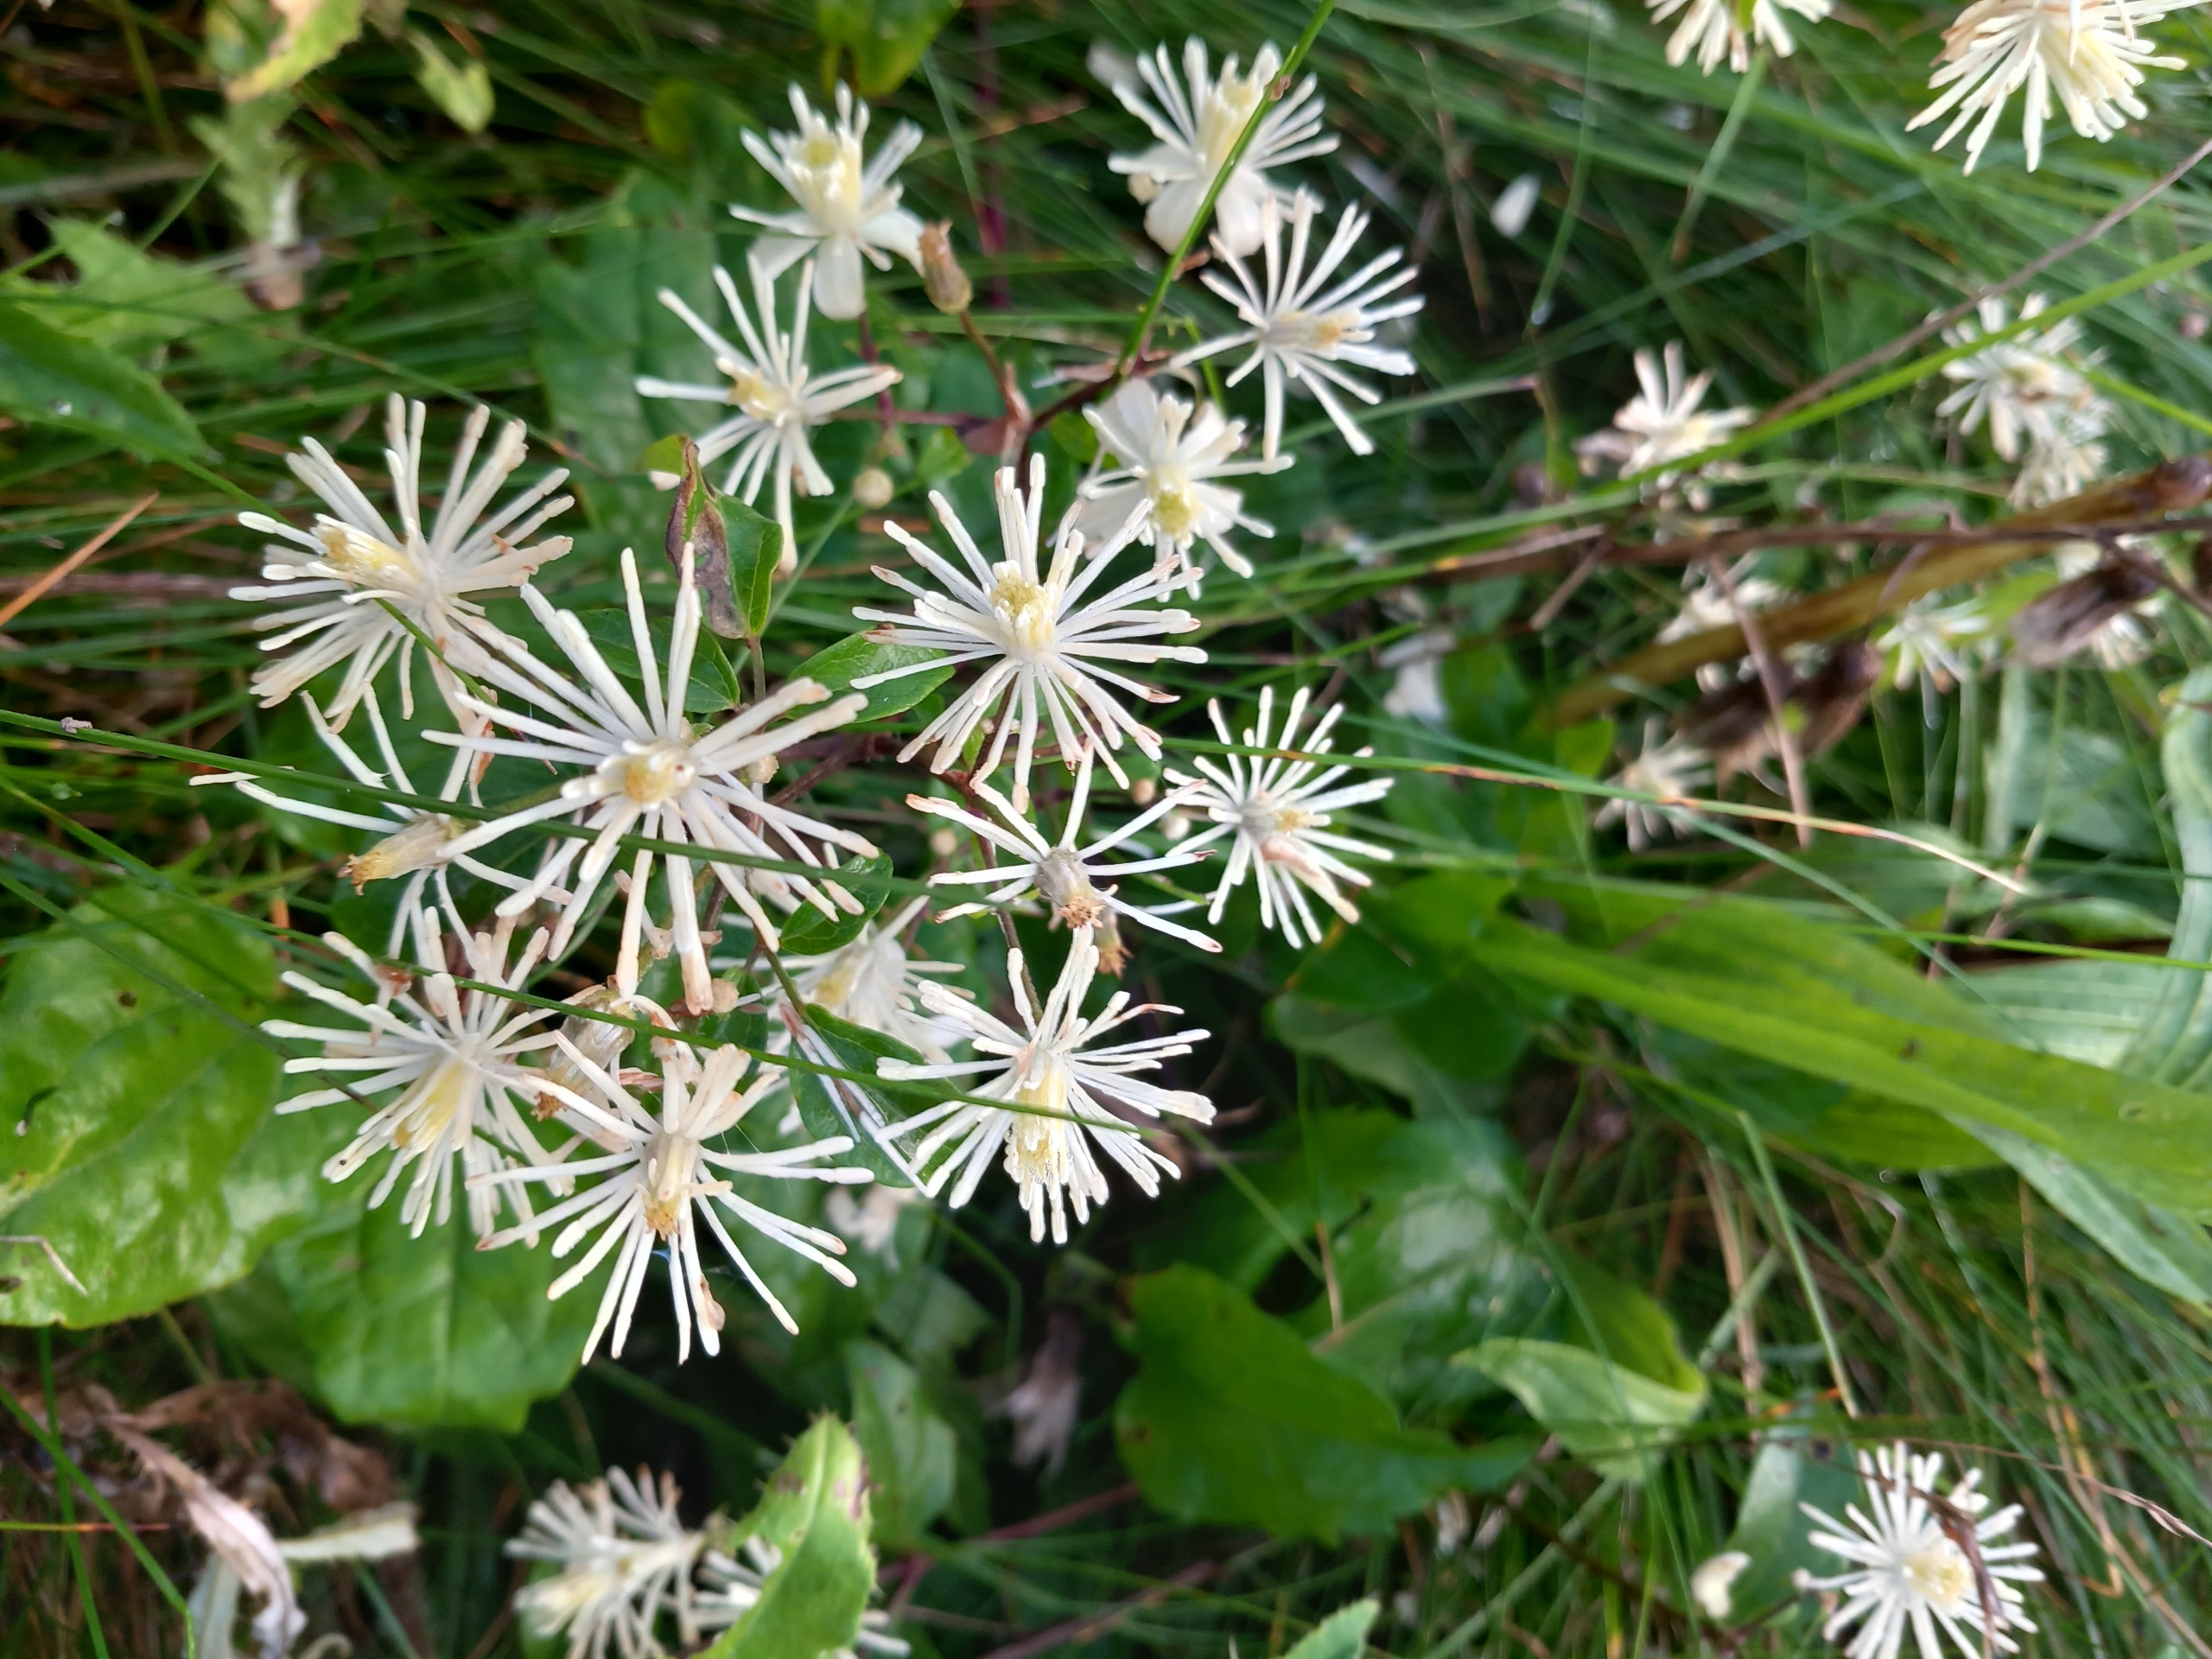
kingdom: Plantae
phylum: Tracheophyta
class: Magnoliopsida
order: Ranunculales
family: Ranunculaceae
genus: Clematis
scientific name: Clematis vitalba
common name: Skovranke
